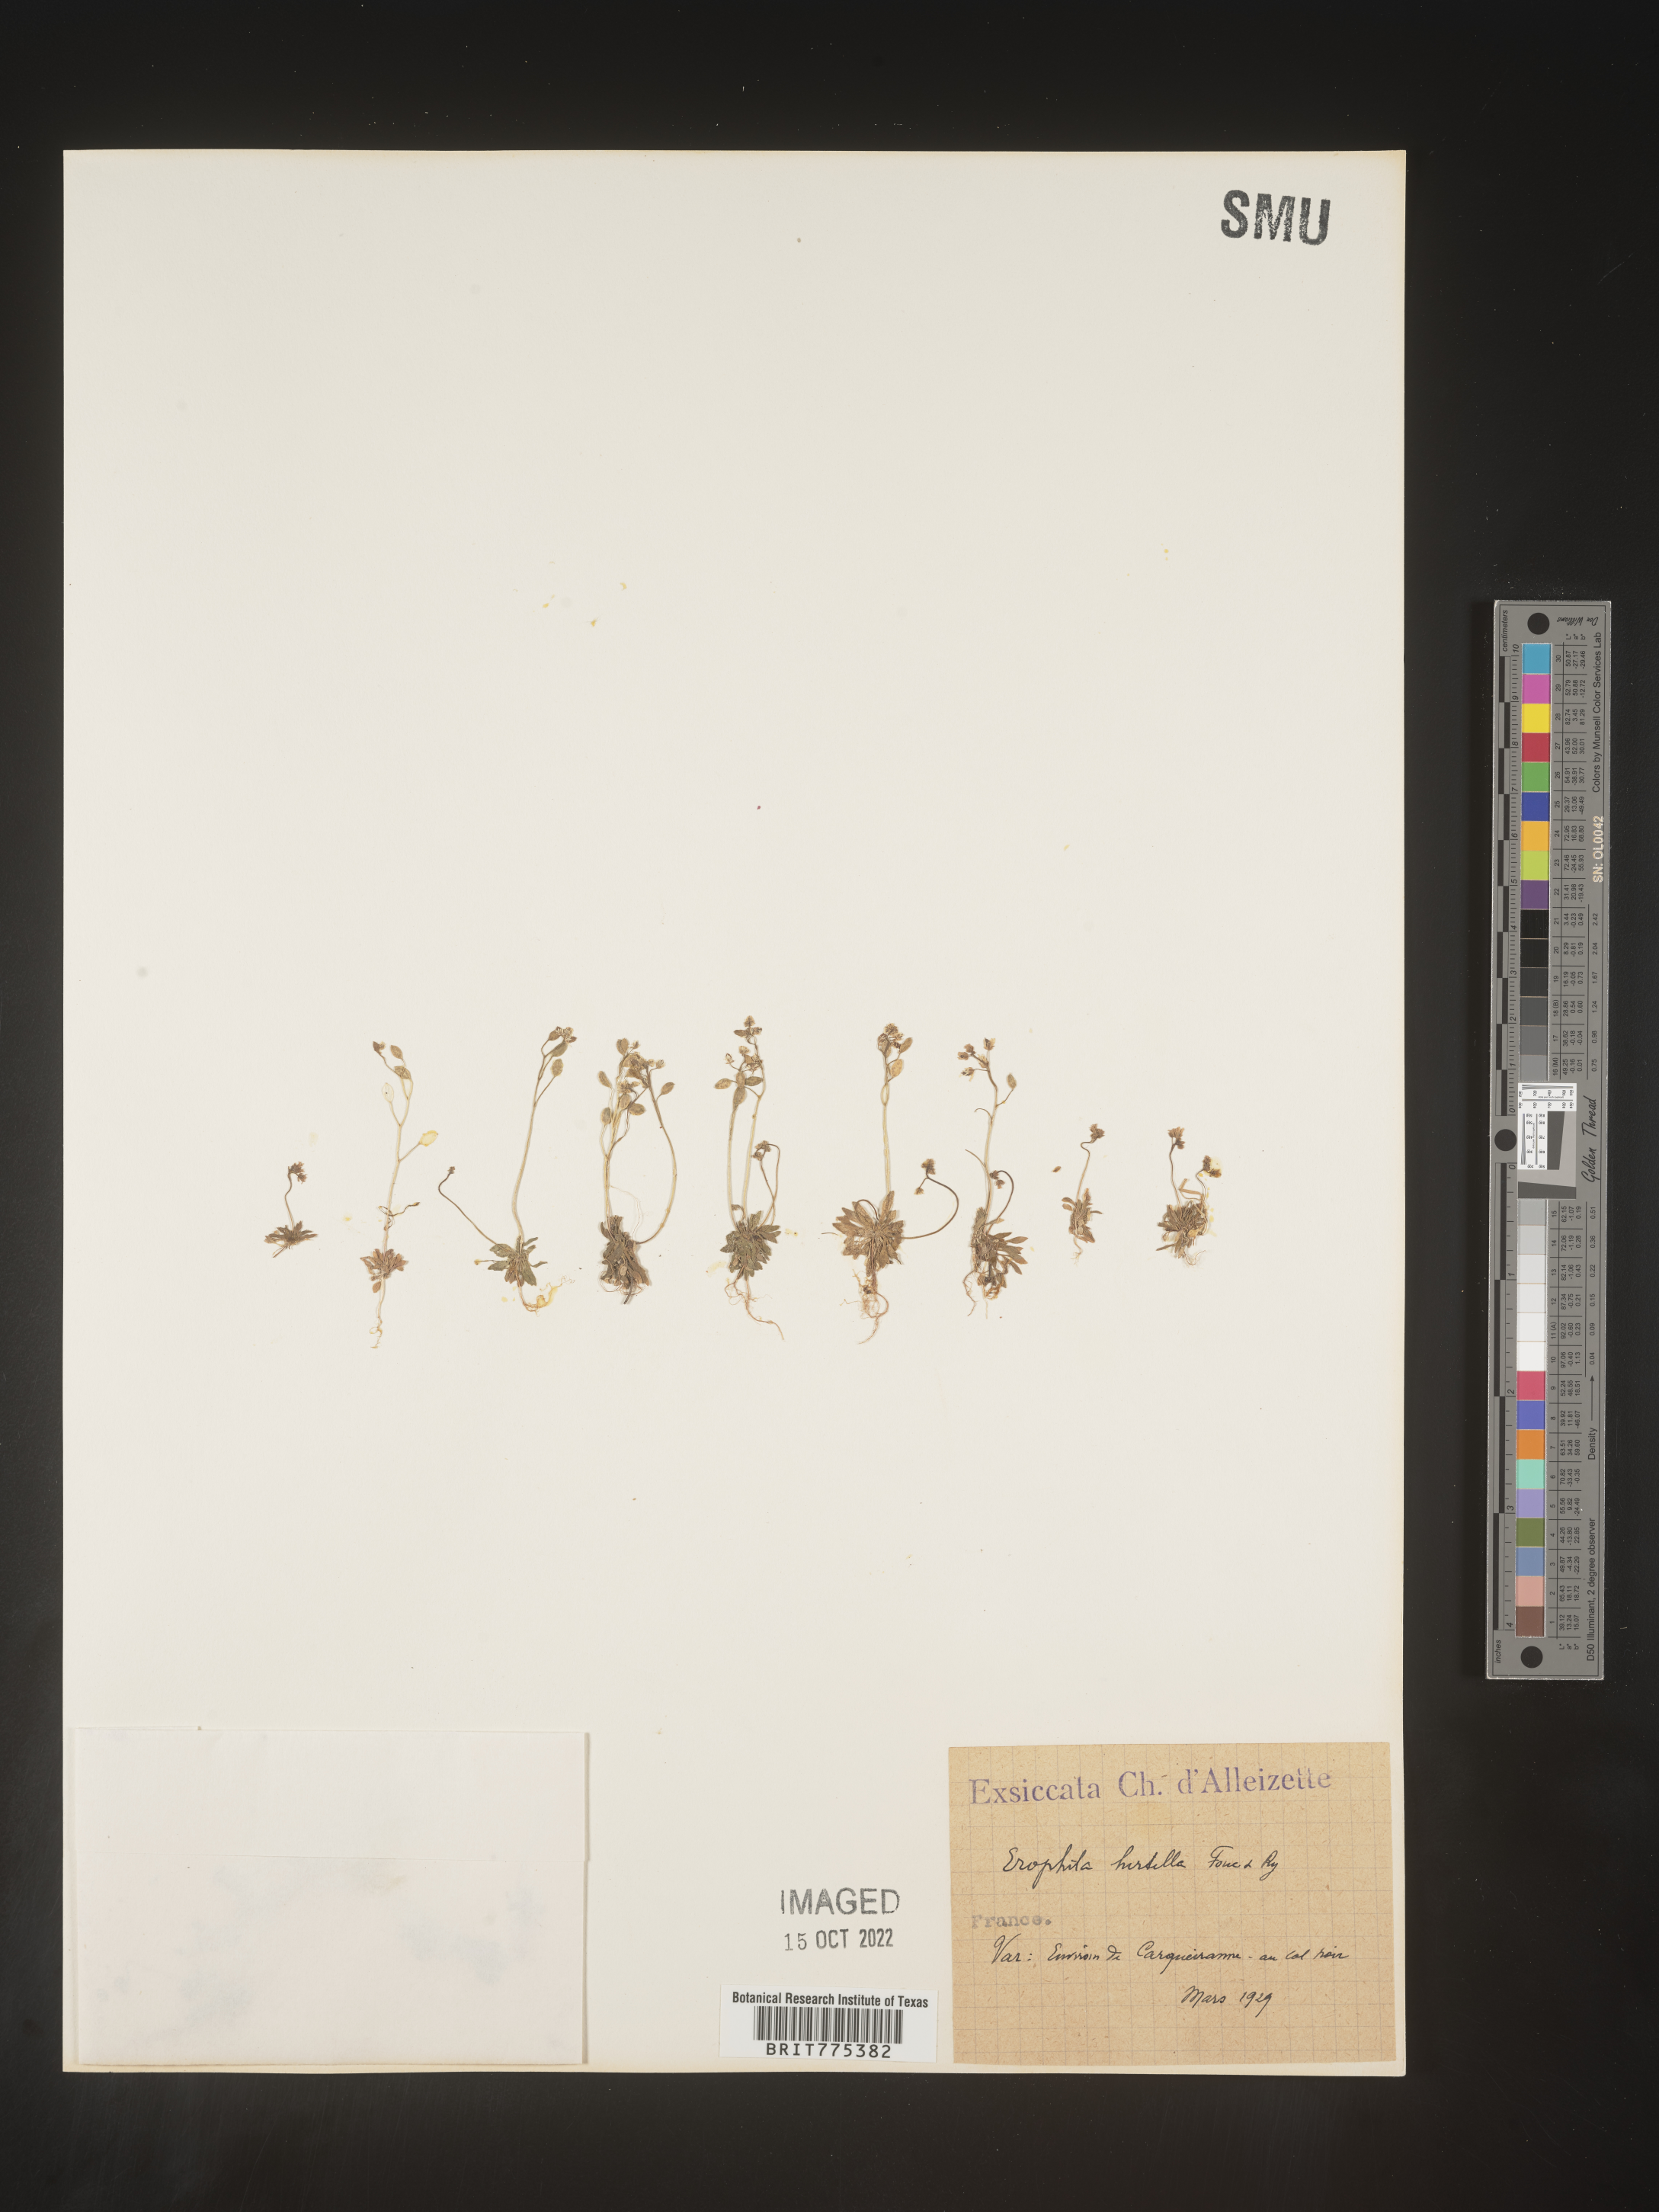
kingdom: Plantae
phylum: Tracheophyta
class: Magnoliopsida
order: Brassicales
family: Brassicaceae
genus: Draba
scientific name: Draba
